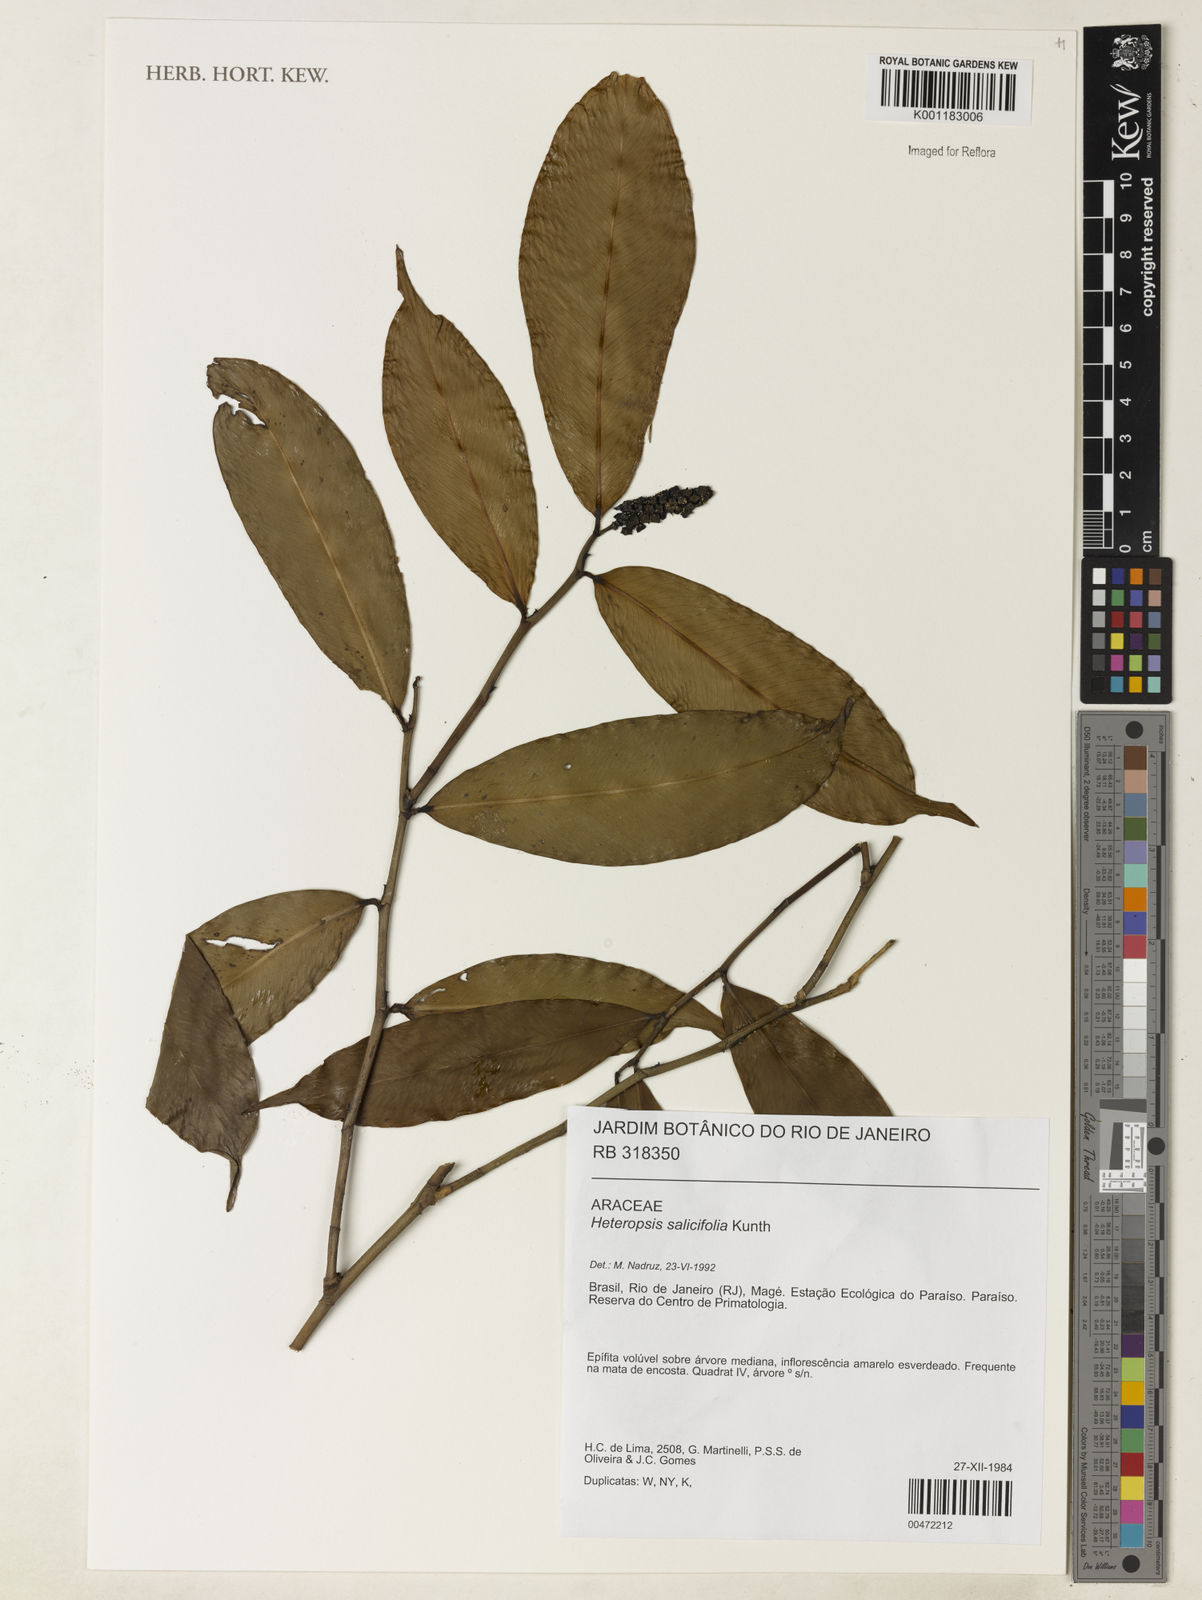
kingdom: Plantae
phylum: Tracheophyta
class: Liliopsida
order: Alismatales
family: Araceae
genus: Heteropsis
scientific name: Heteropsis salicifolia
